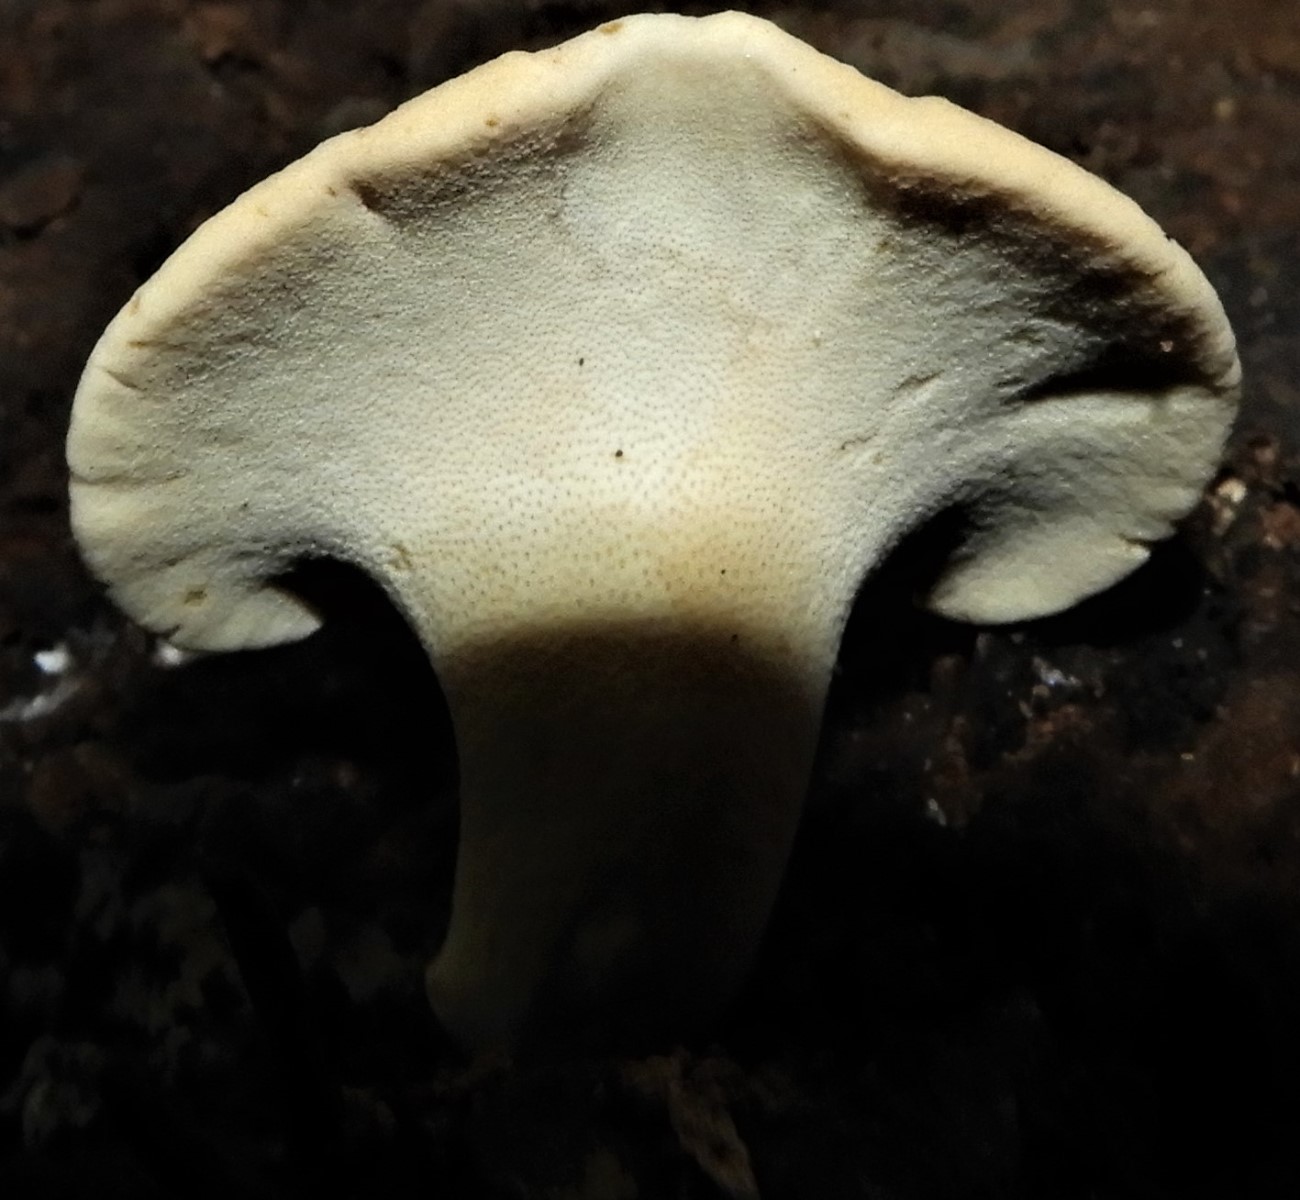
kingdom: Fungi
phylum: Basidiomycota
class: Agaricomycetes
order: Polyporales
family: Polyporaceae
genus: Cerioporus
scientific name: Cerioporus varius
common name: foranderlig stilkporesvamp
